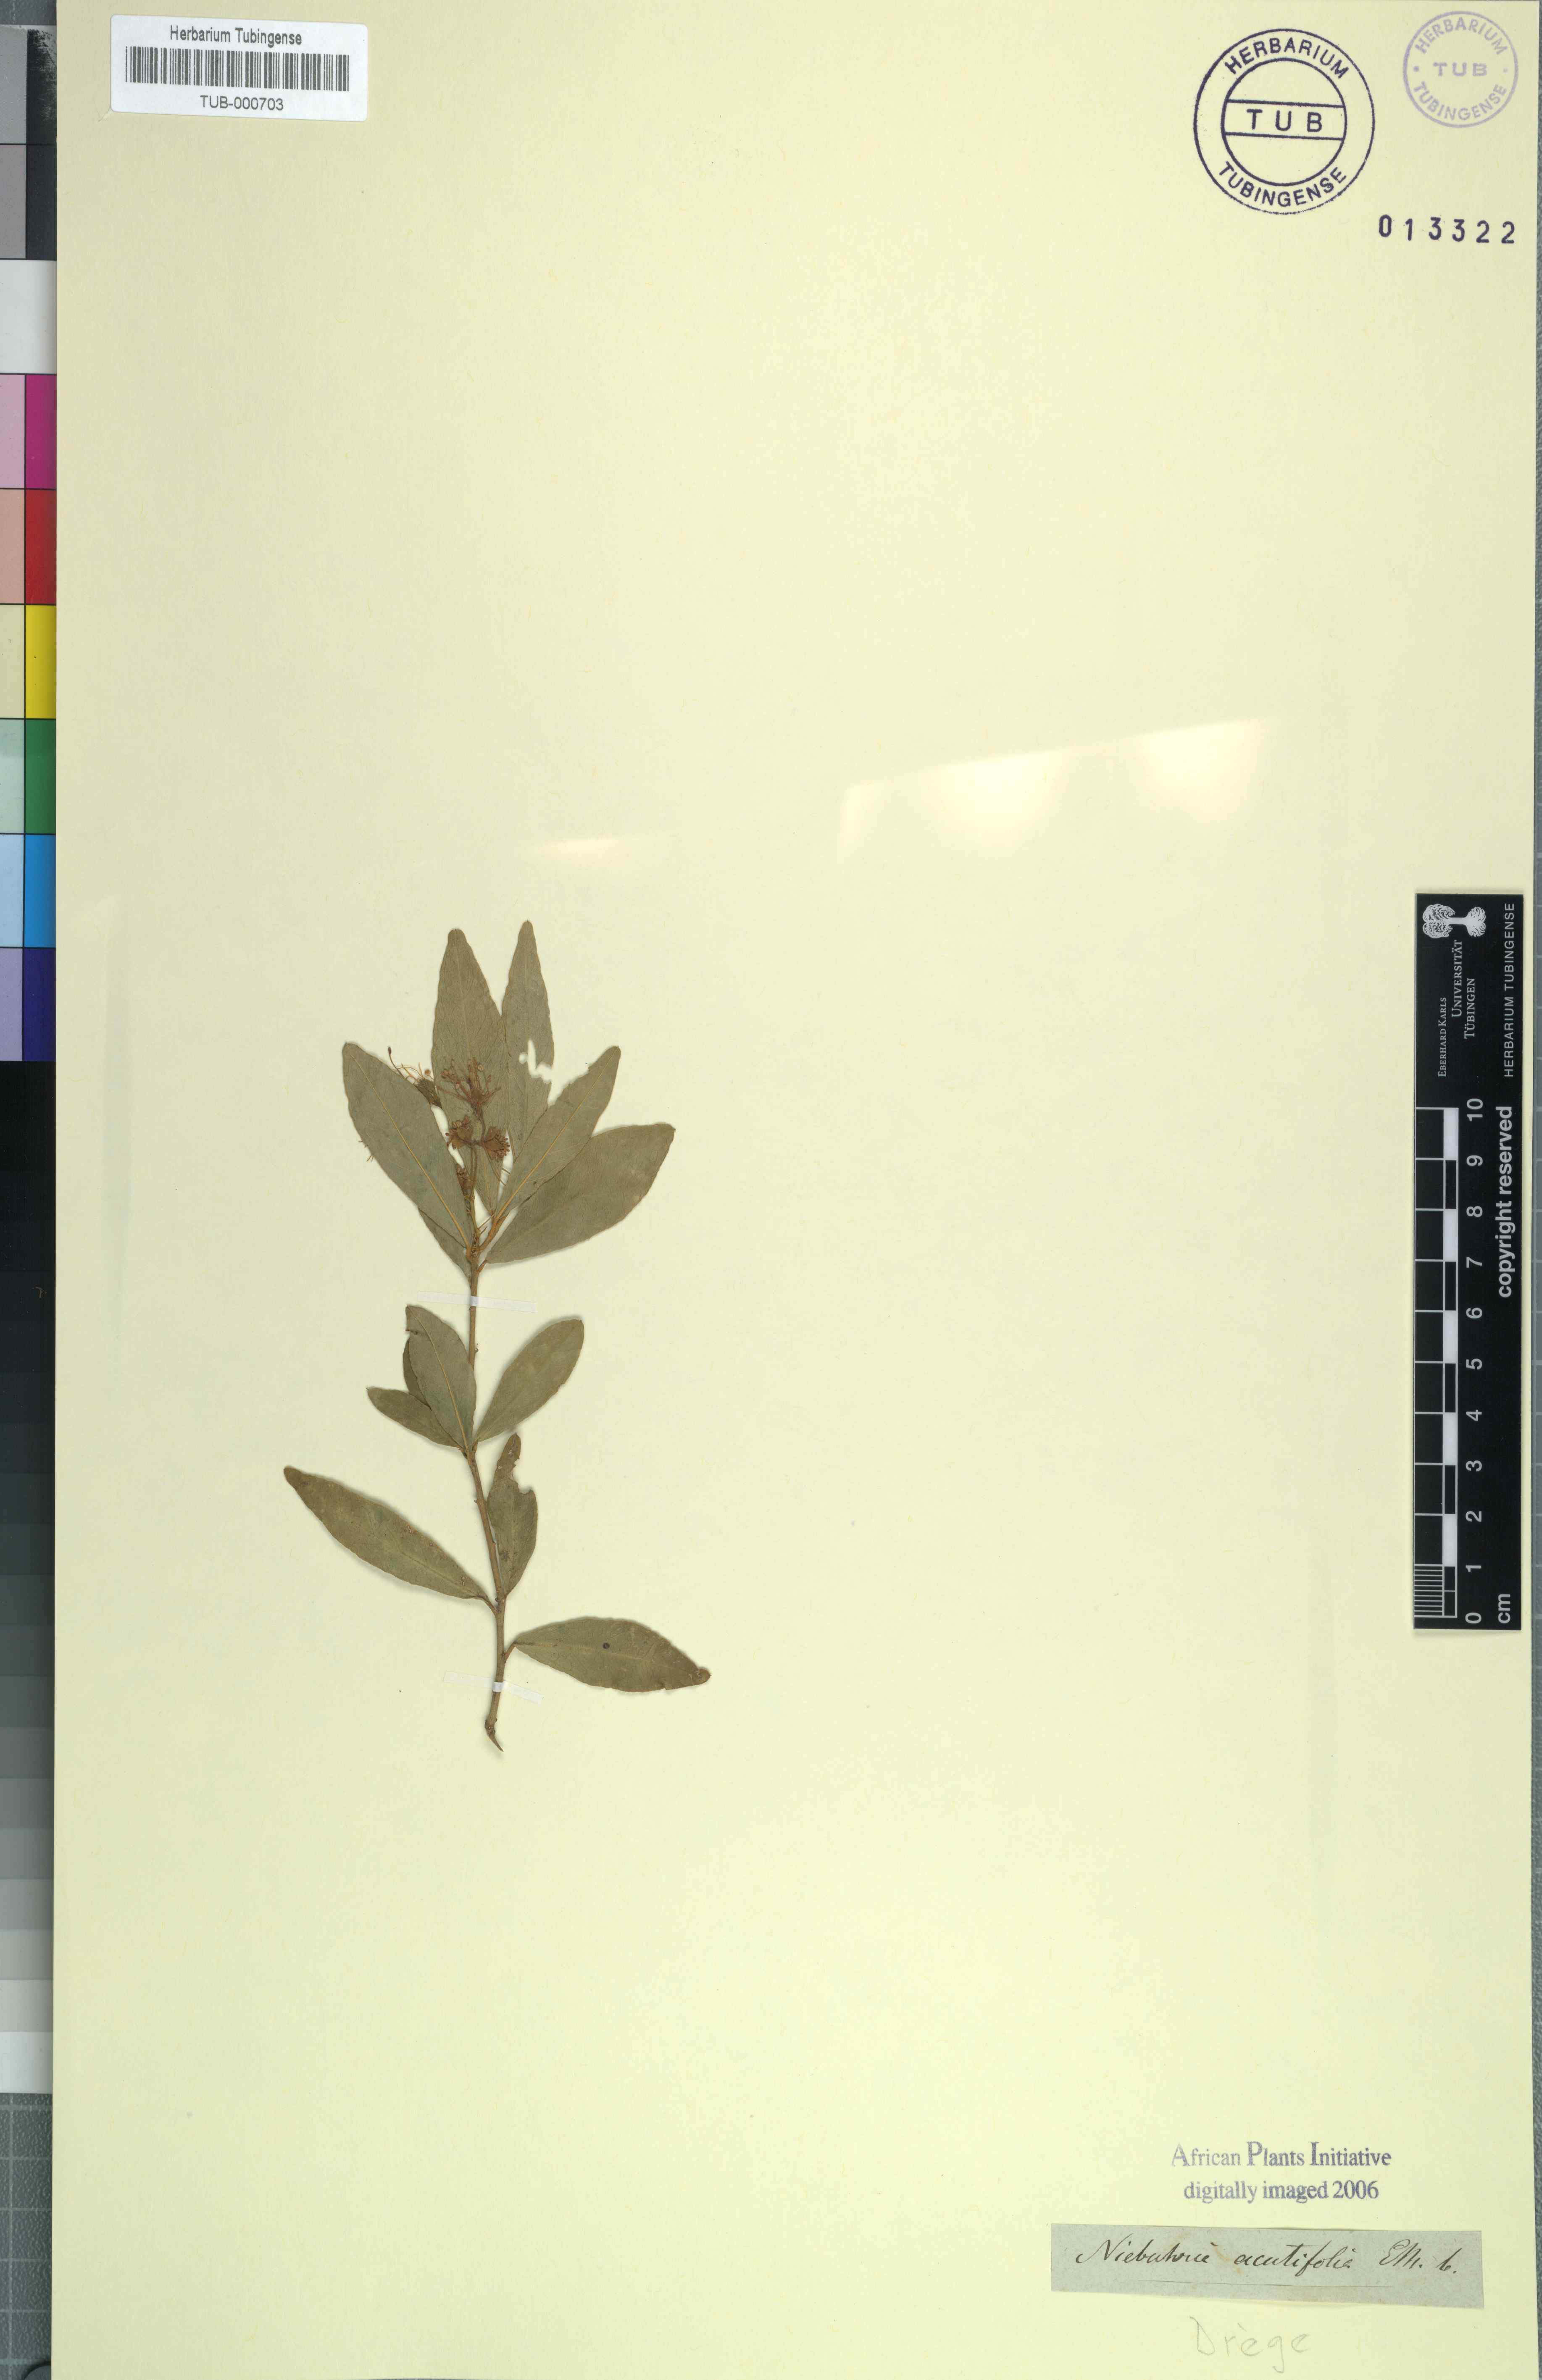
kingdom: Plantae
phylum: Tracheophyta
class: Magnoliopsida
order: Brassicales
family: Capparaceae
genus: Maerua
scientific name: Maerua cafra
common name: Bush maerua
